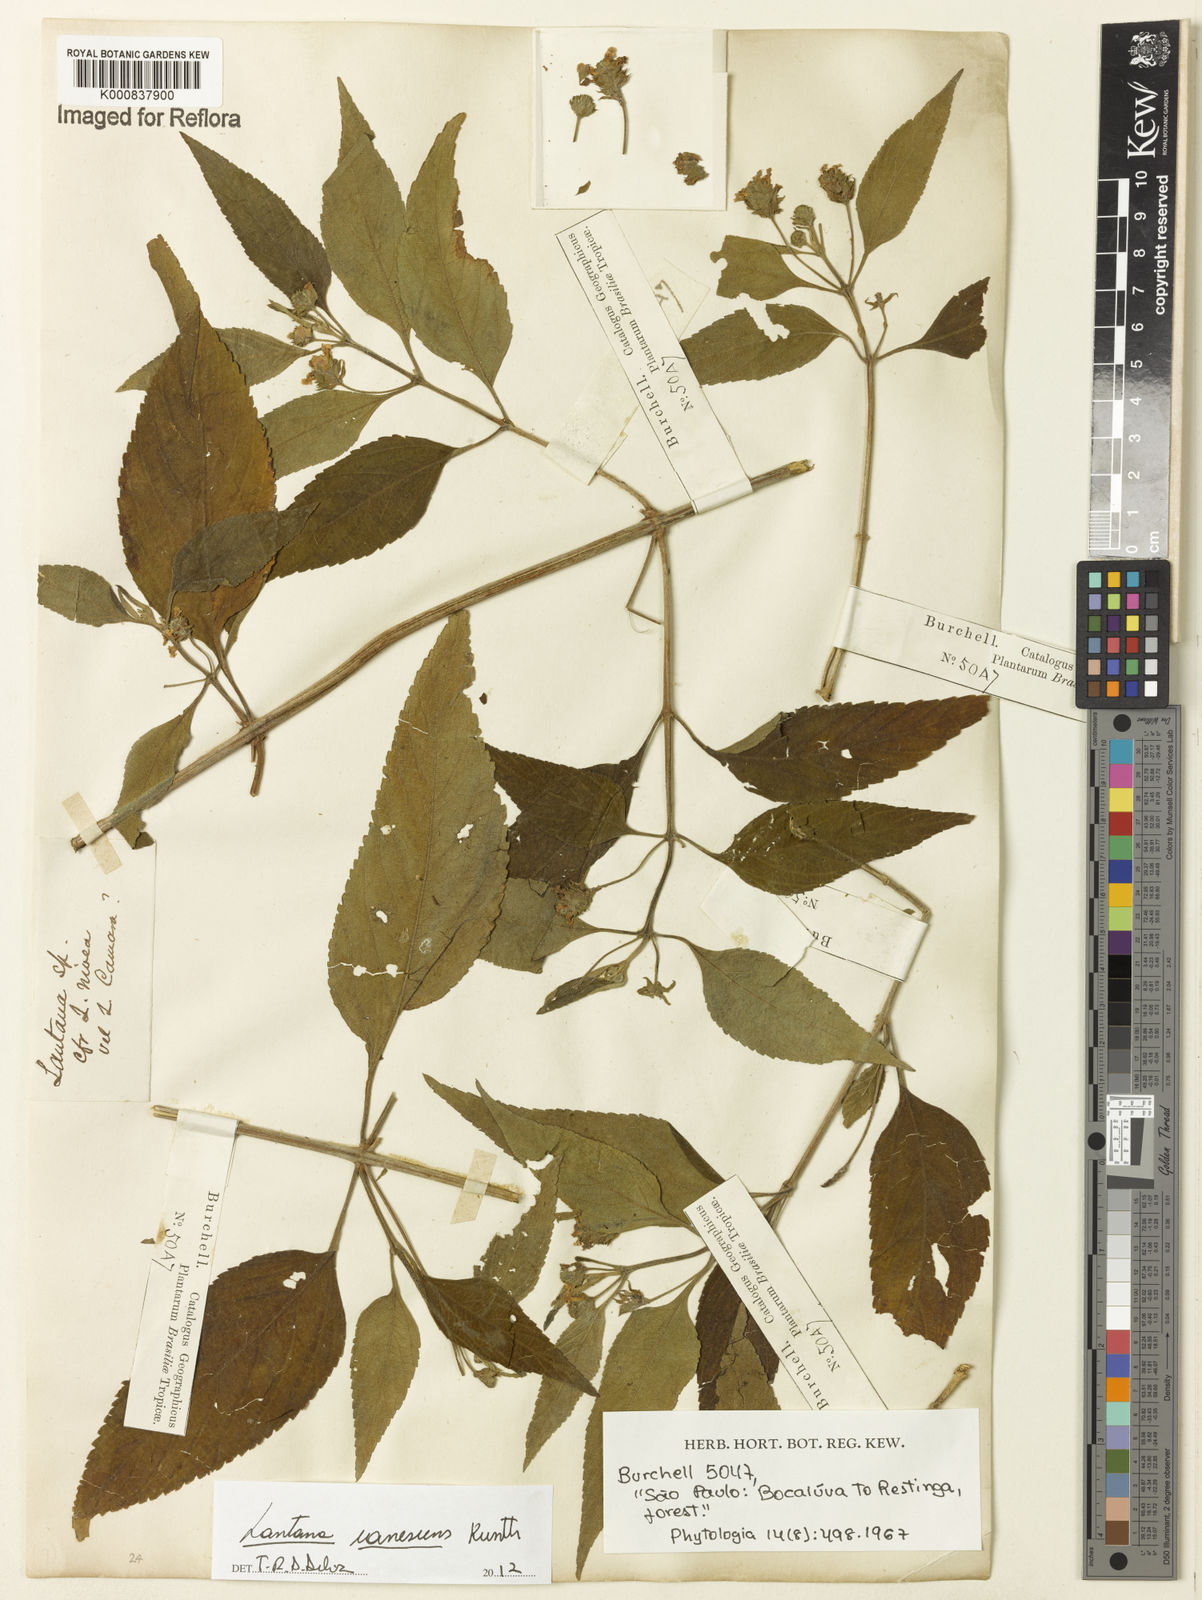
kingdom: Plantae
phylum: Tracheophyta
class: Magnoliopsida
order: Lamiales
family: Verbenaceae
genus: Lantana
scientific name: Lantana canescens
